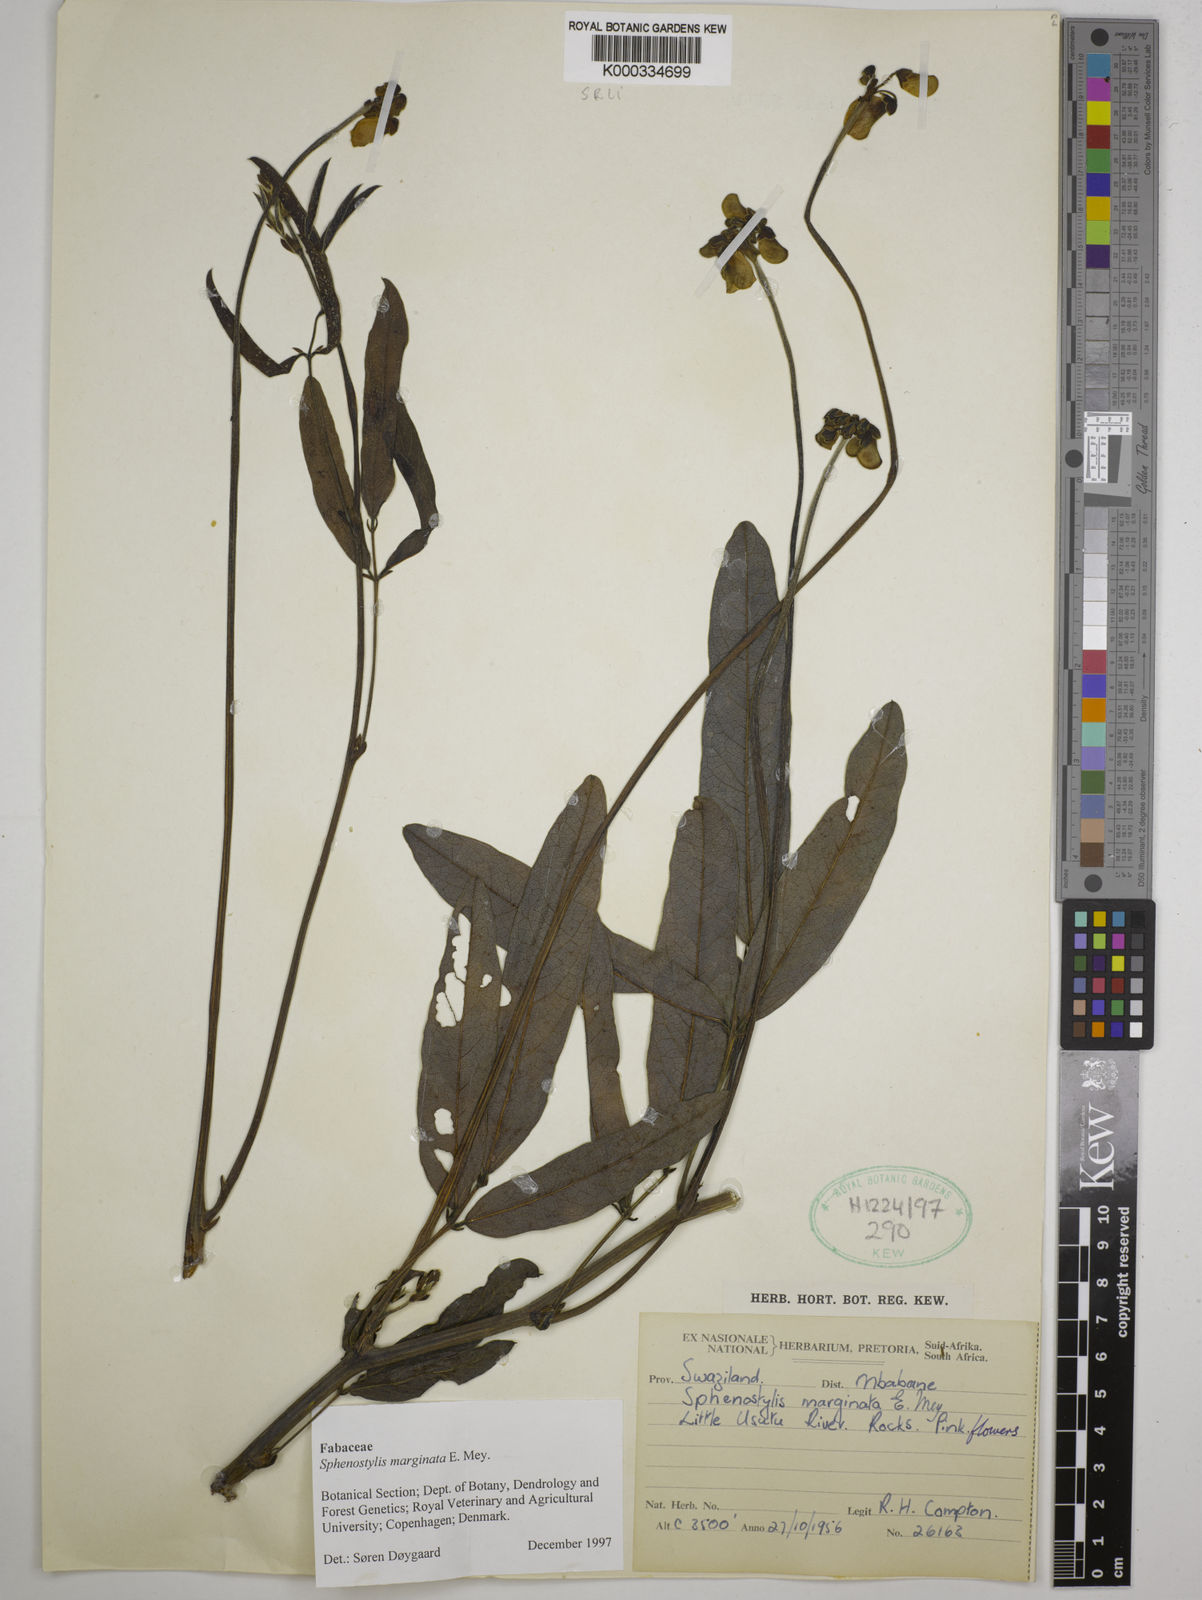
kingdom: Plantae
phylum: Tracheophyta
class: Magnoliopsida
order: Fabales
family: Fabaceae
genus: Sphenostylis
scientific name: Sphenostylis marginata
